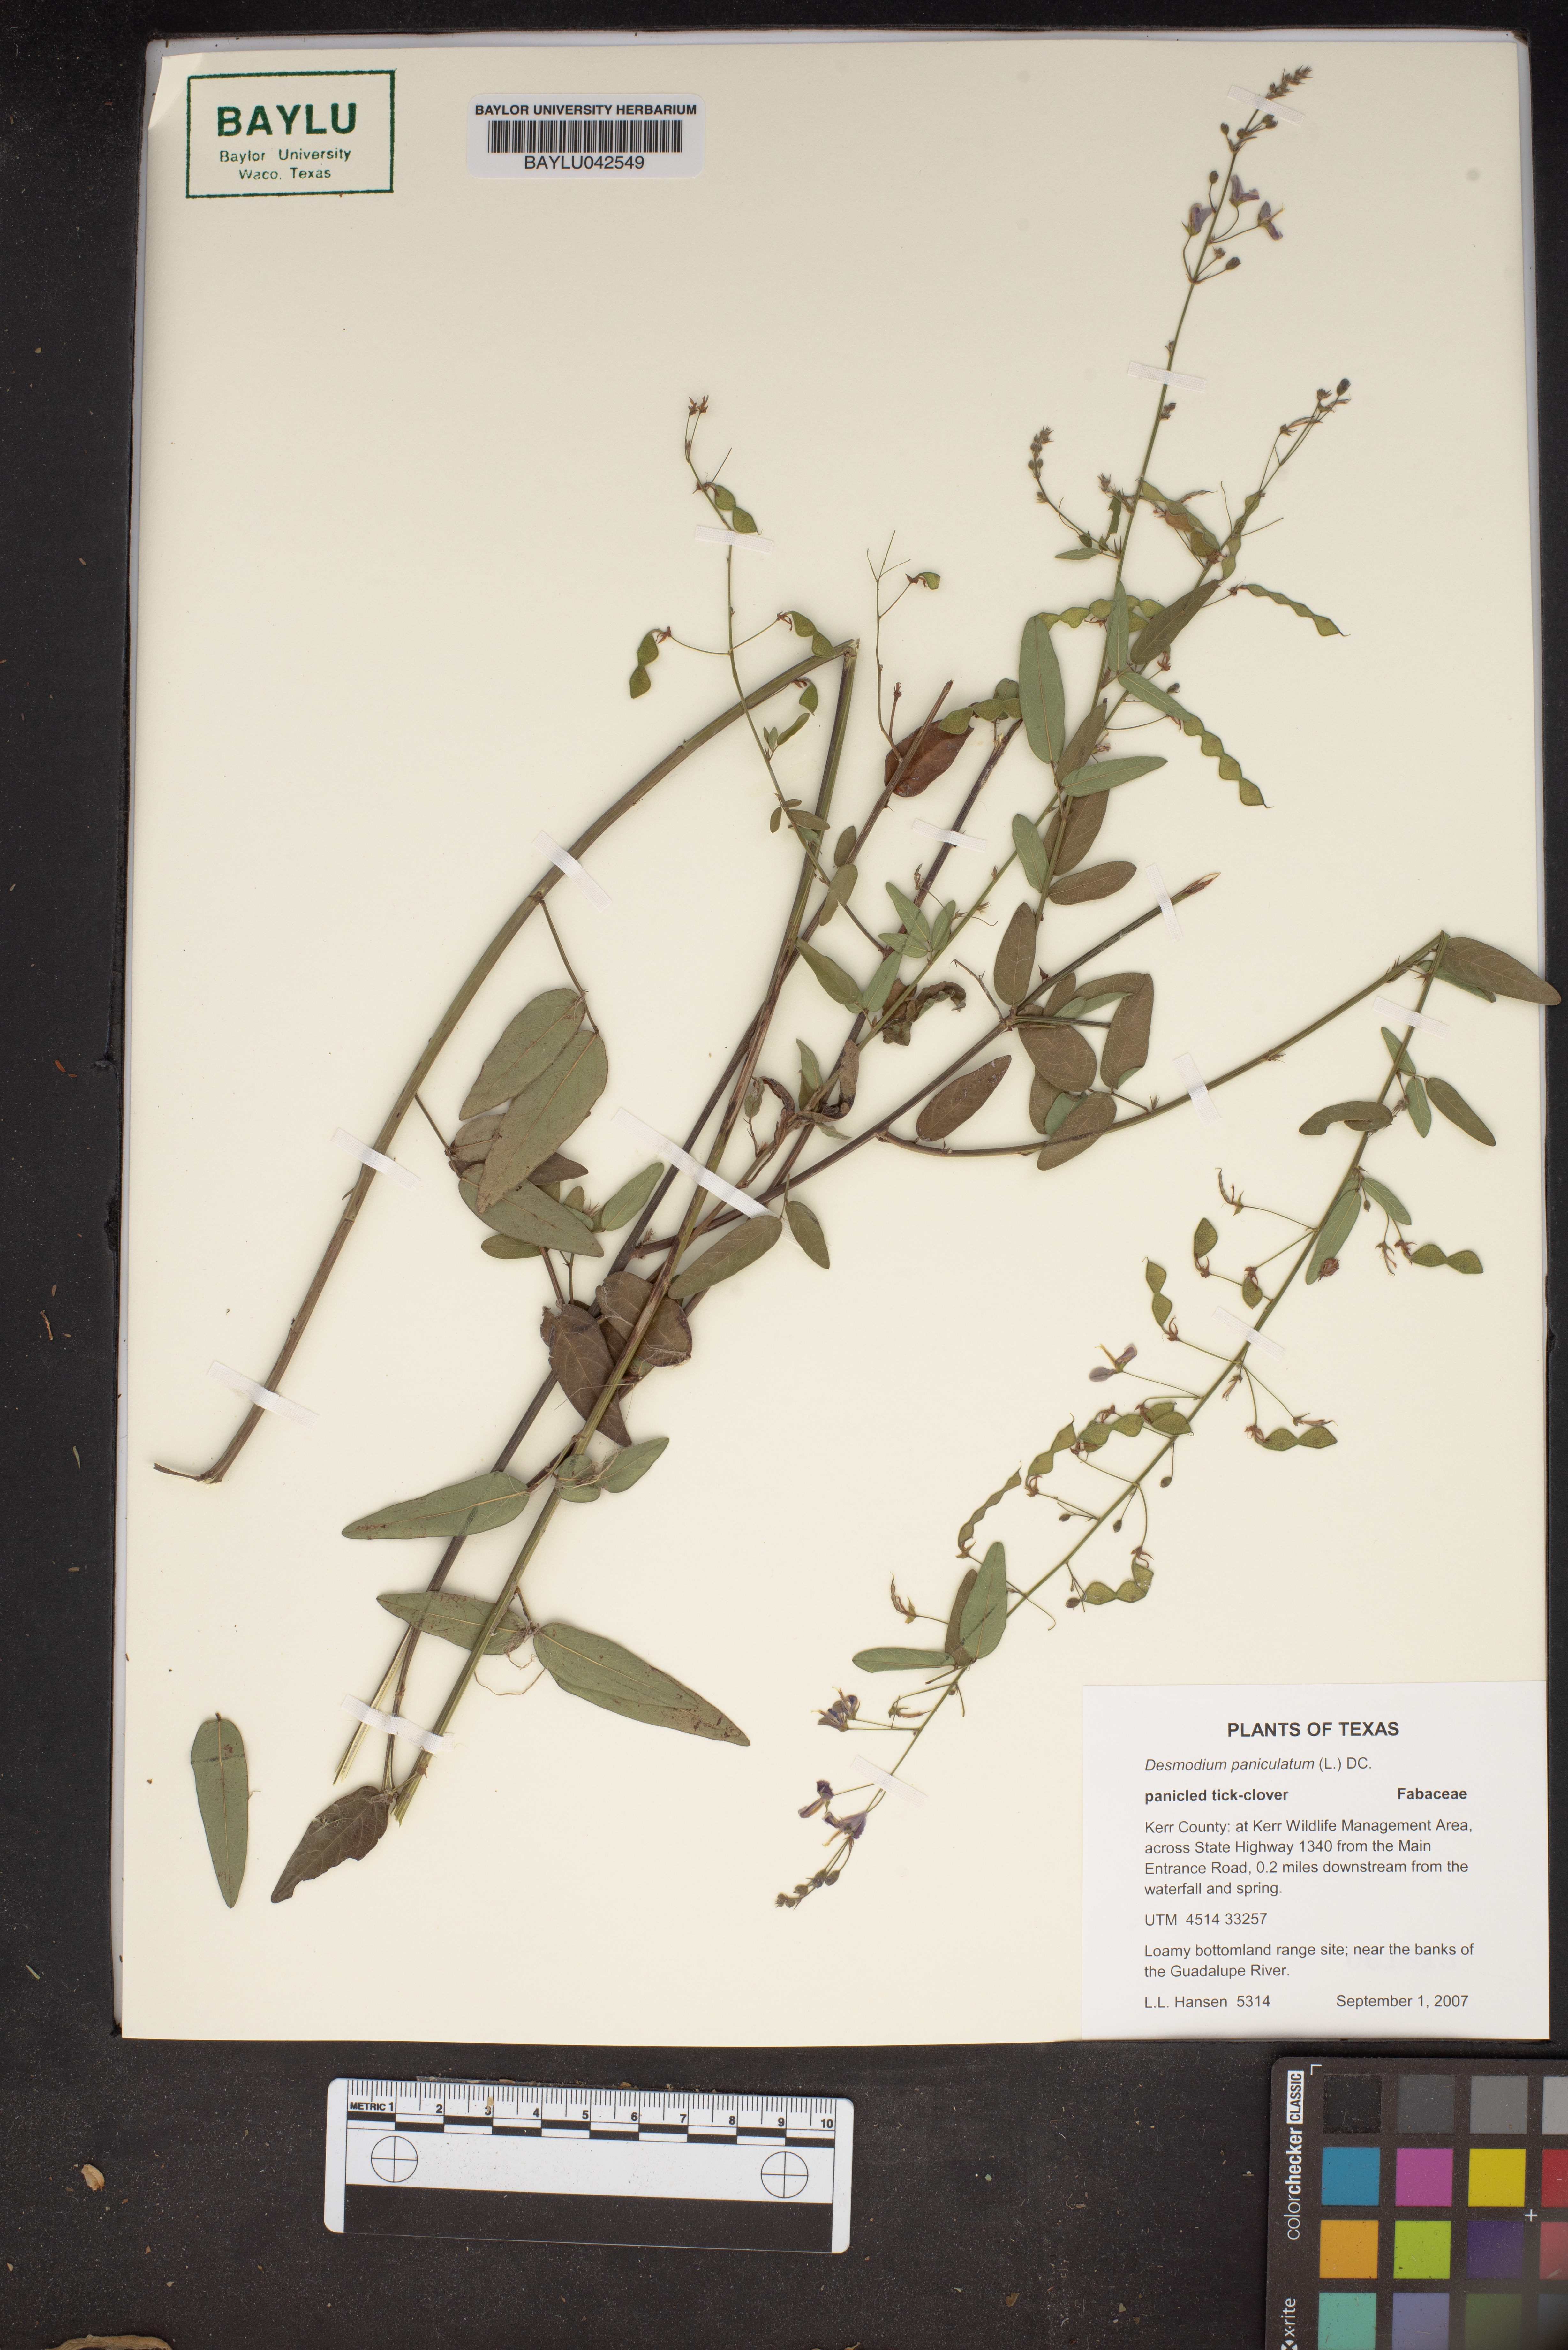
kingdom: Plantae
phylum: Tracheophyta
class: Magnoliopsida
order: Fabales
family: Fabaceae
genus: Desmodium
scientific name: Desmodium paniculatum
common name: Panicled tick-clover
